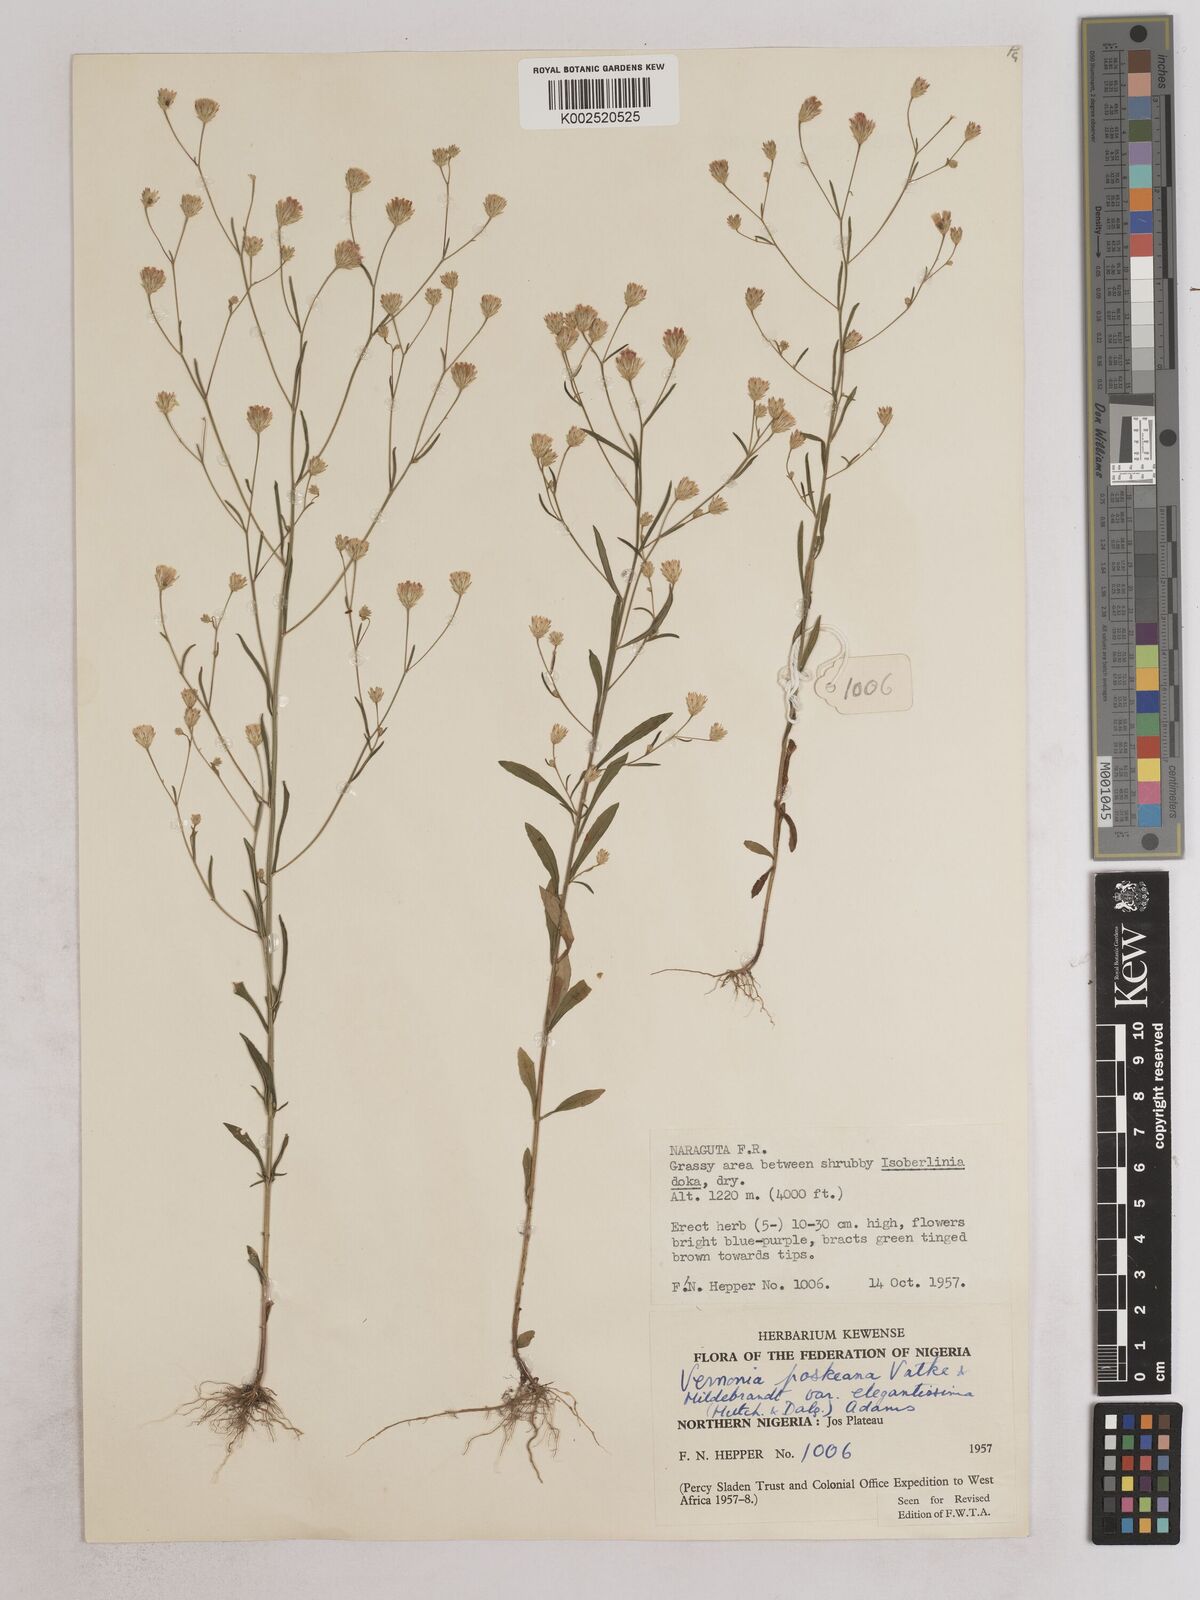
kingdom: Plantae
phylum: Tracheophyta
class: Magnoliopsida
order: Asterales
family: Asteraceae
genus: Crystallopollen
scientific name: Crystallopollen angustifolium
